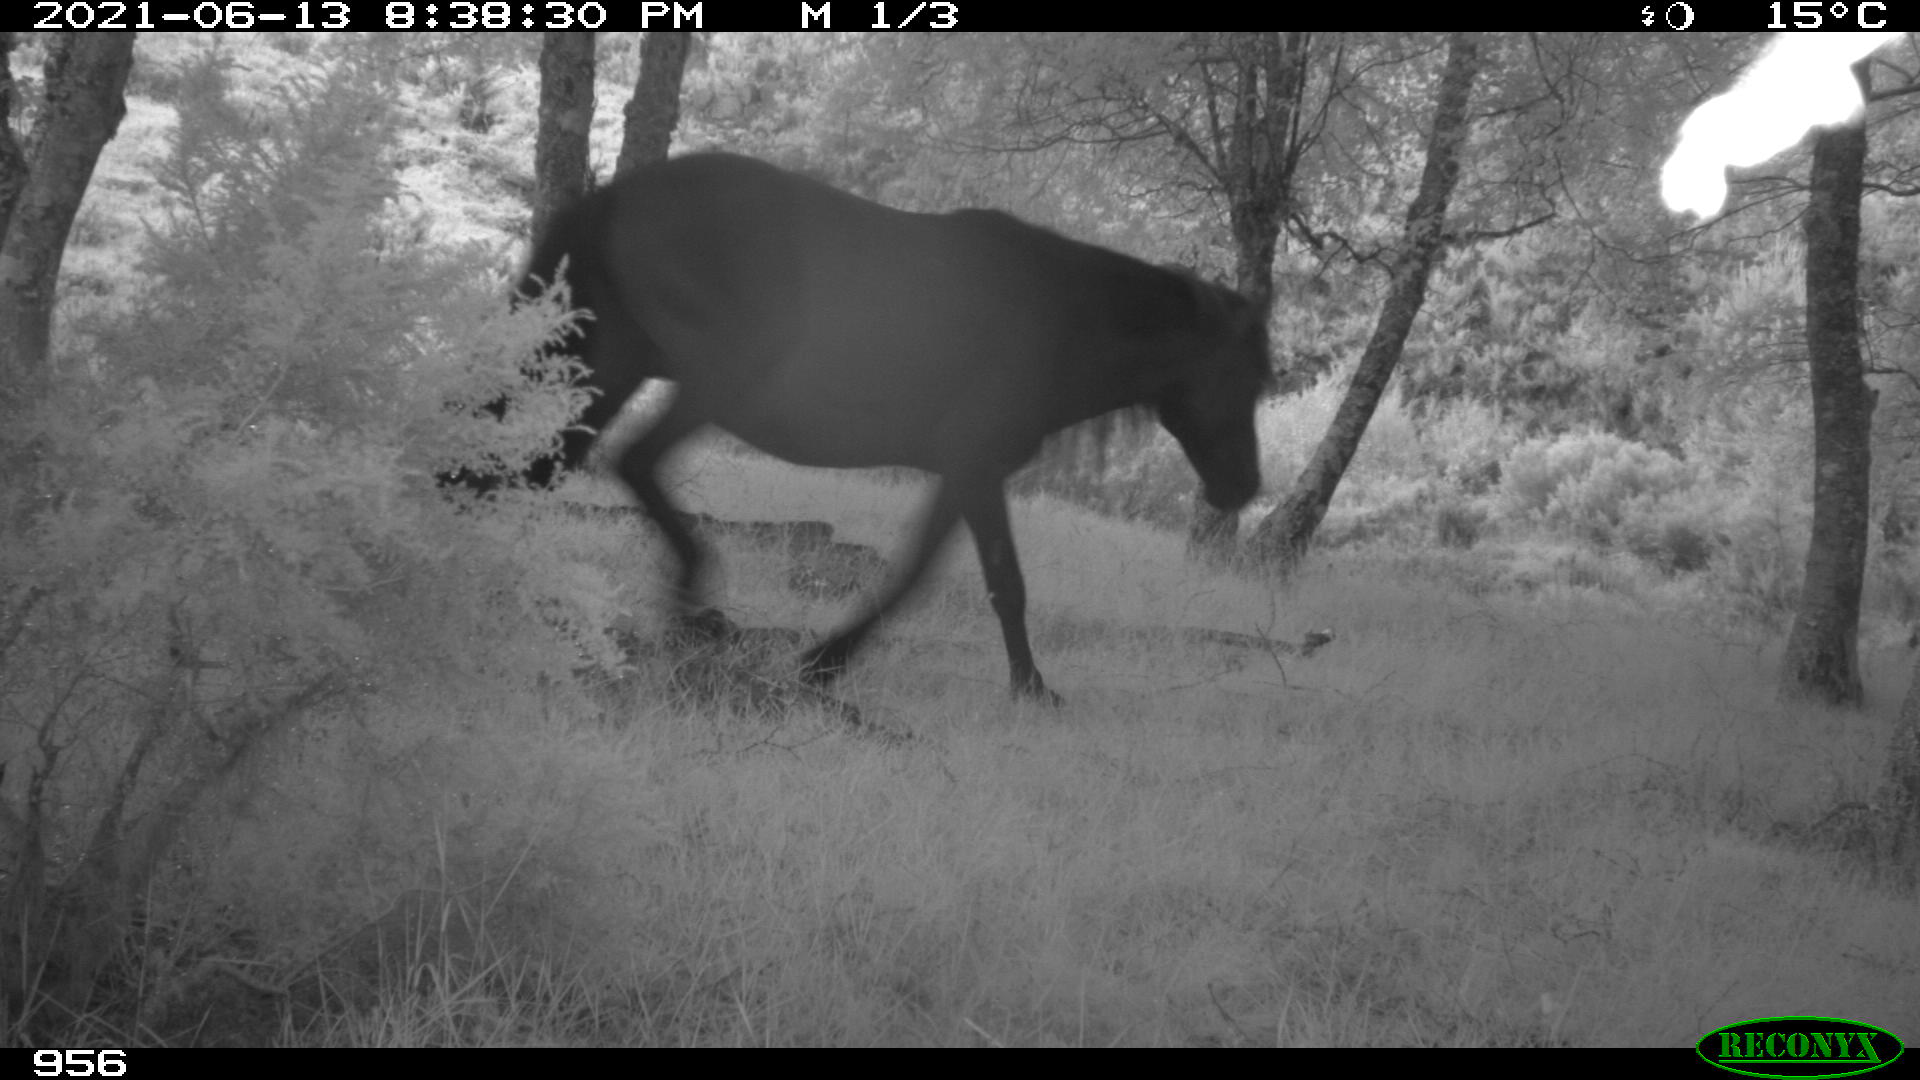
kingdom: Animalia
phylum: Chordata
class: Mammalia
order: Perissodactyla
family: Equidae
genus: Equus
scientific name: Equus caballus
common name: Horse
